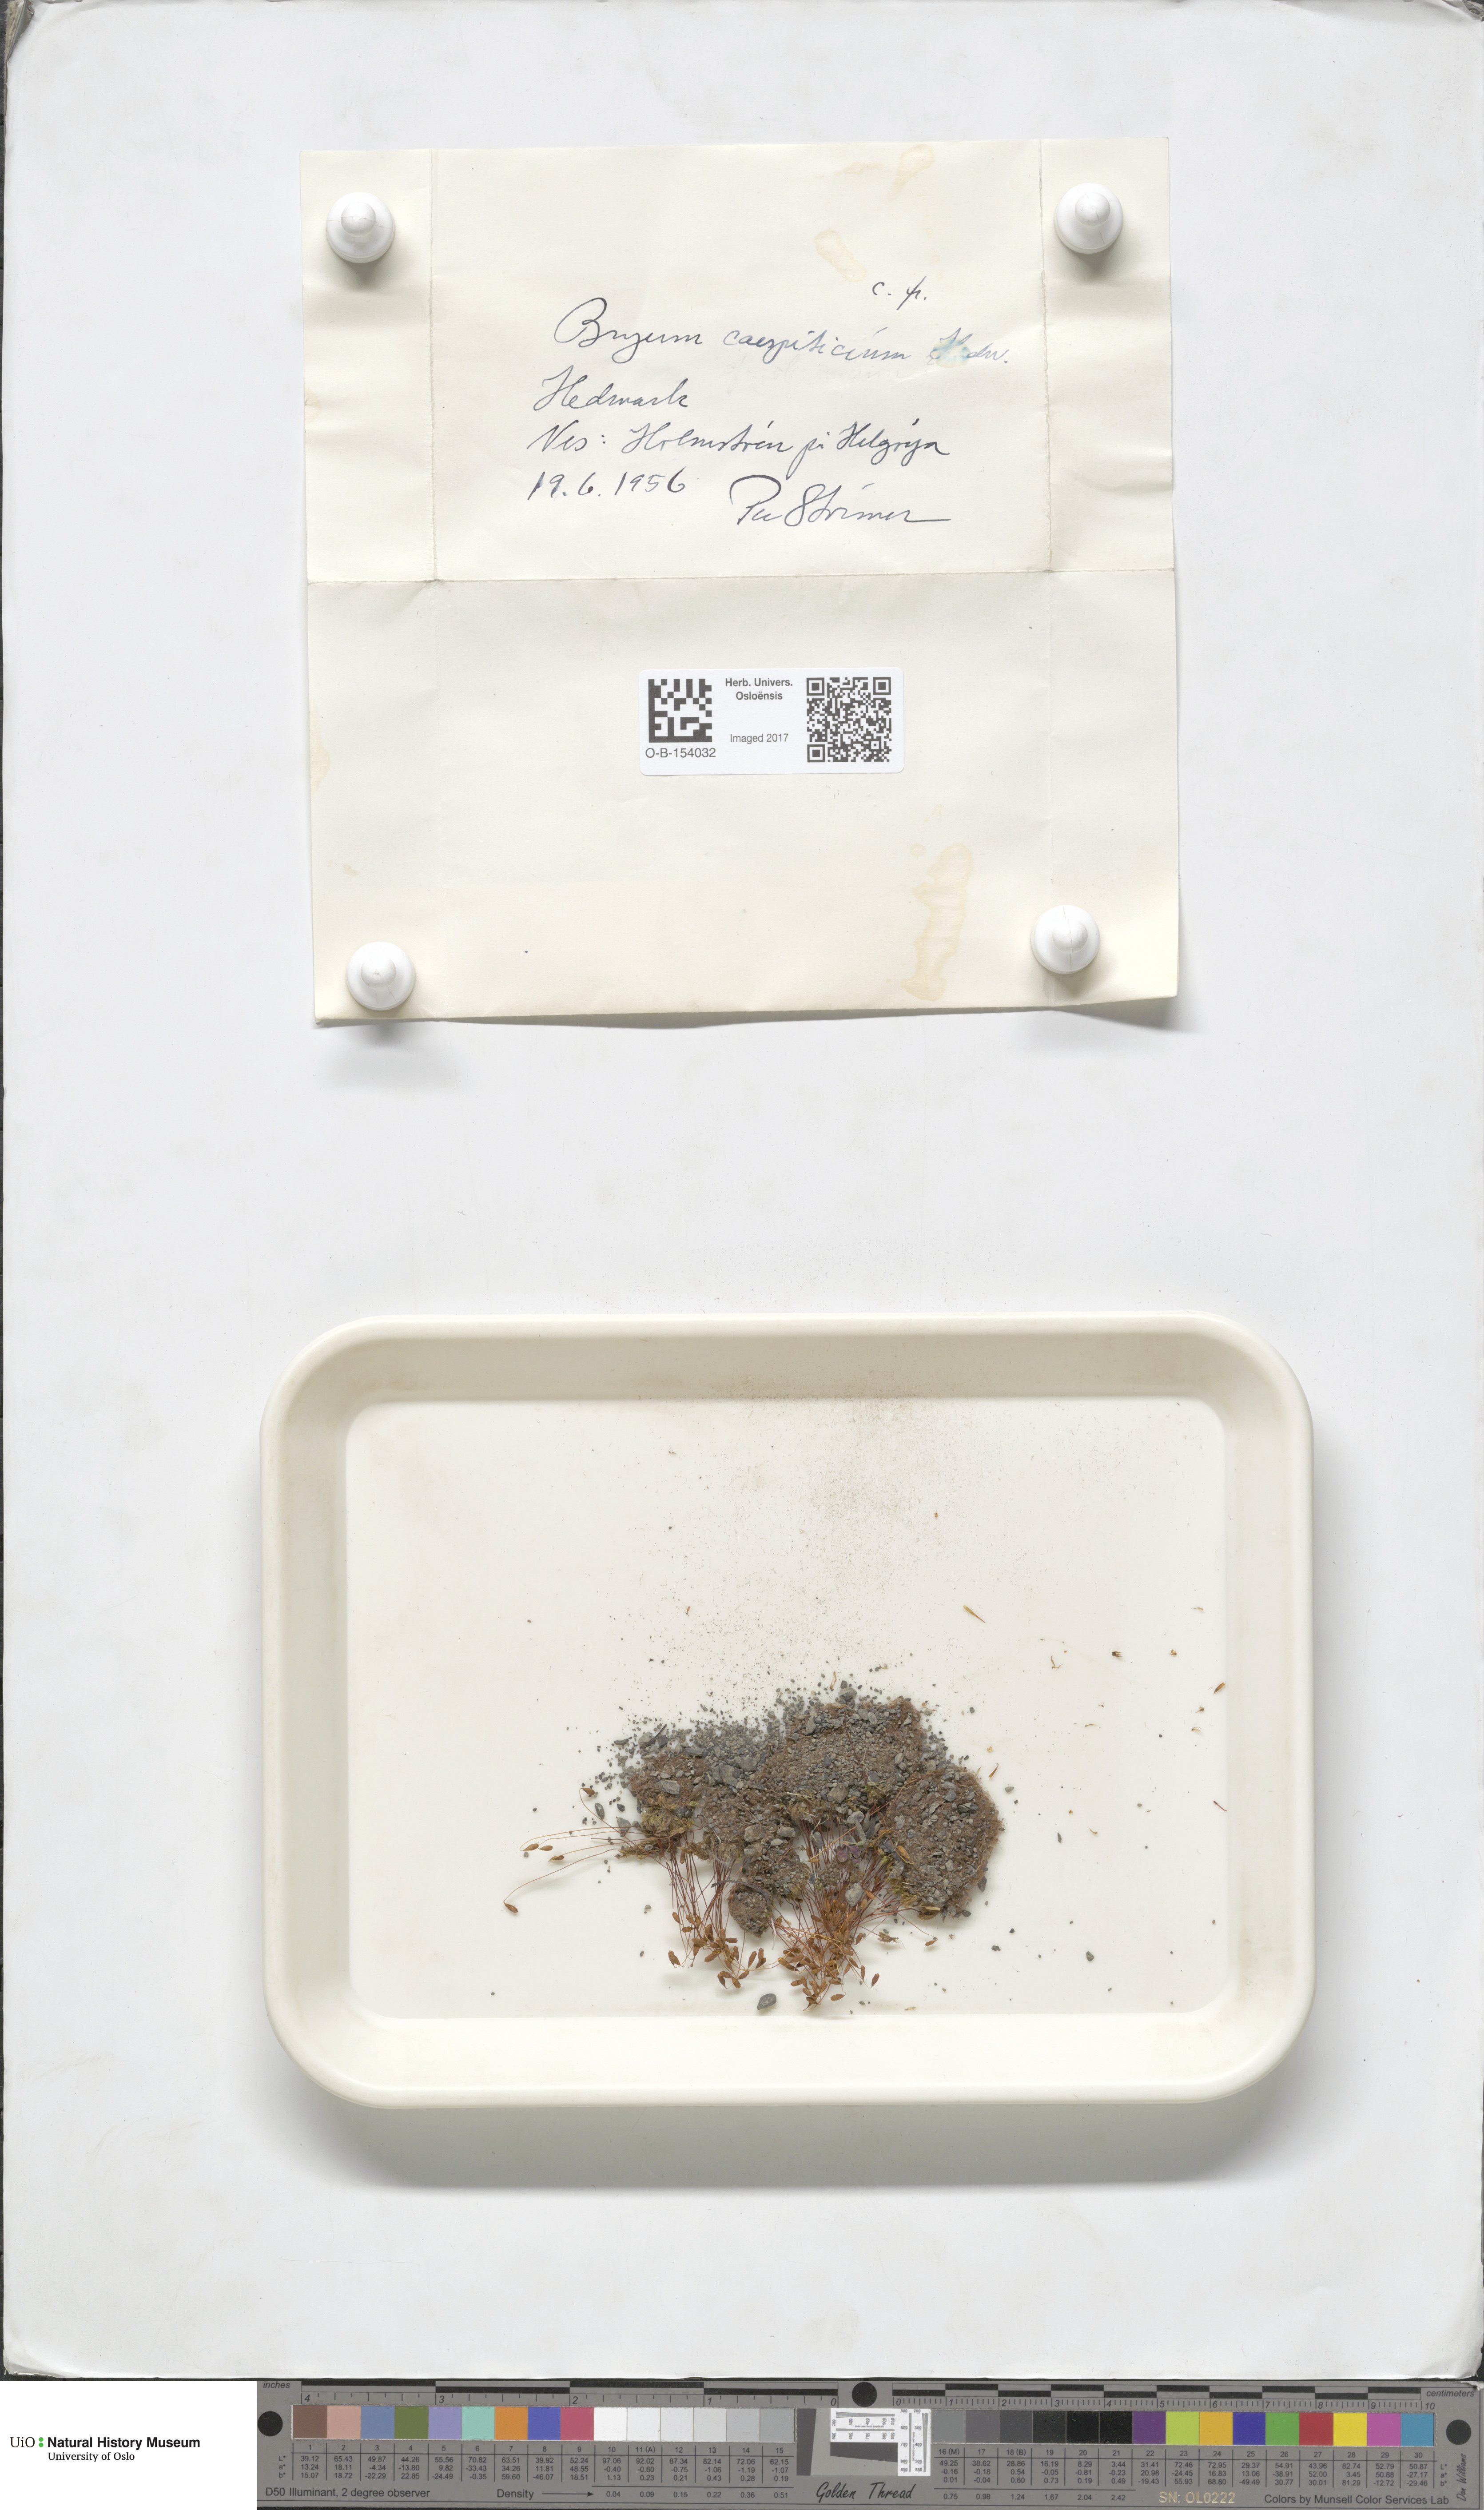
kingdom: Plantae
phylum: Bryophyta
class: Bryopsida
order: Bryales
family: Bryaceae
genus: Gemmabryum
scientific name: Gemmabryum caespiticium
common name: Handbell moss
